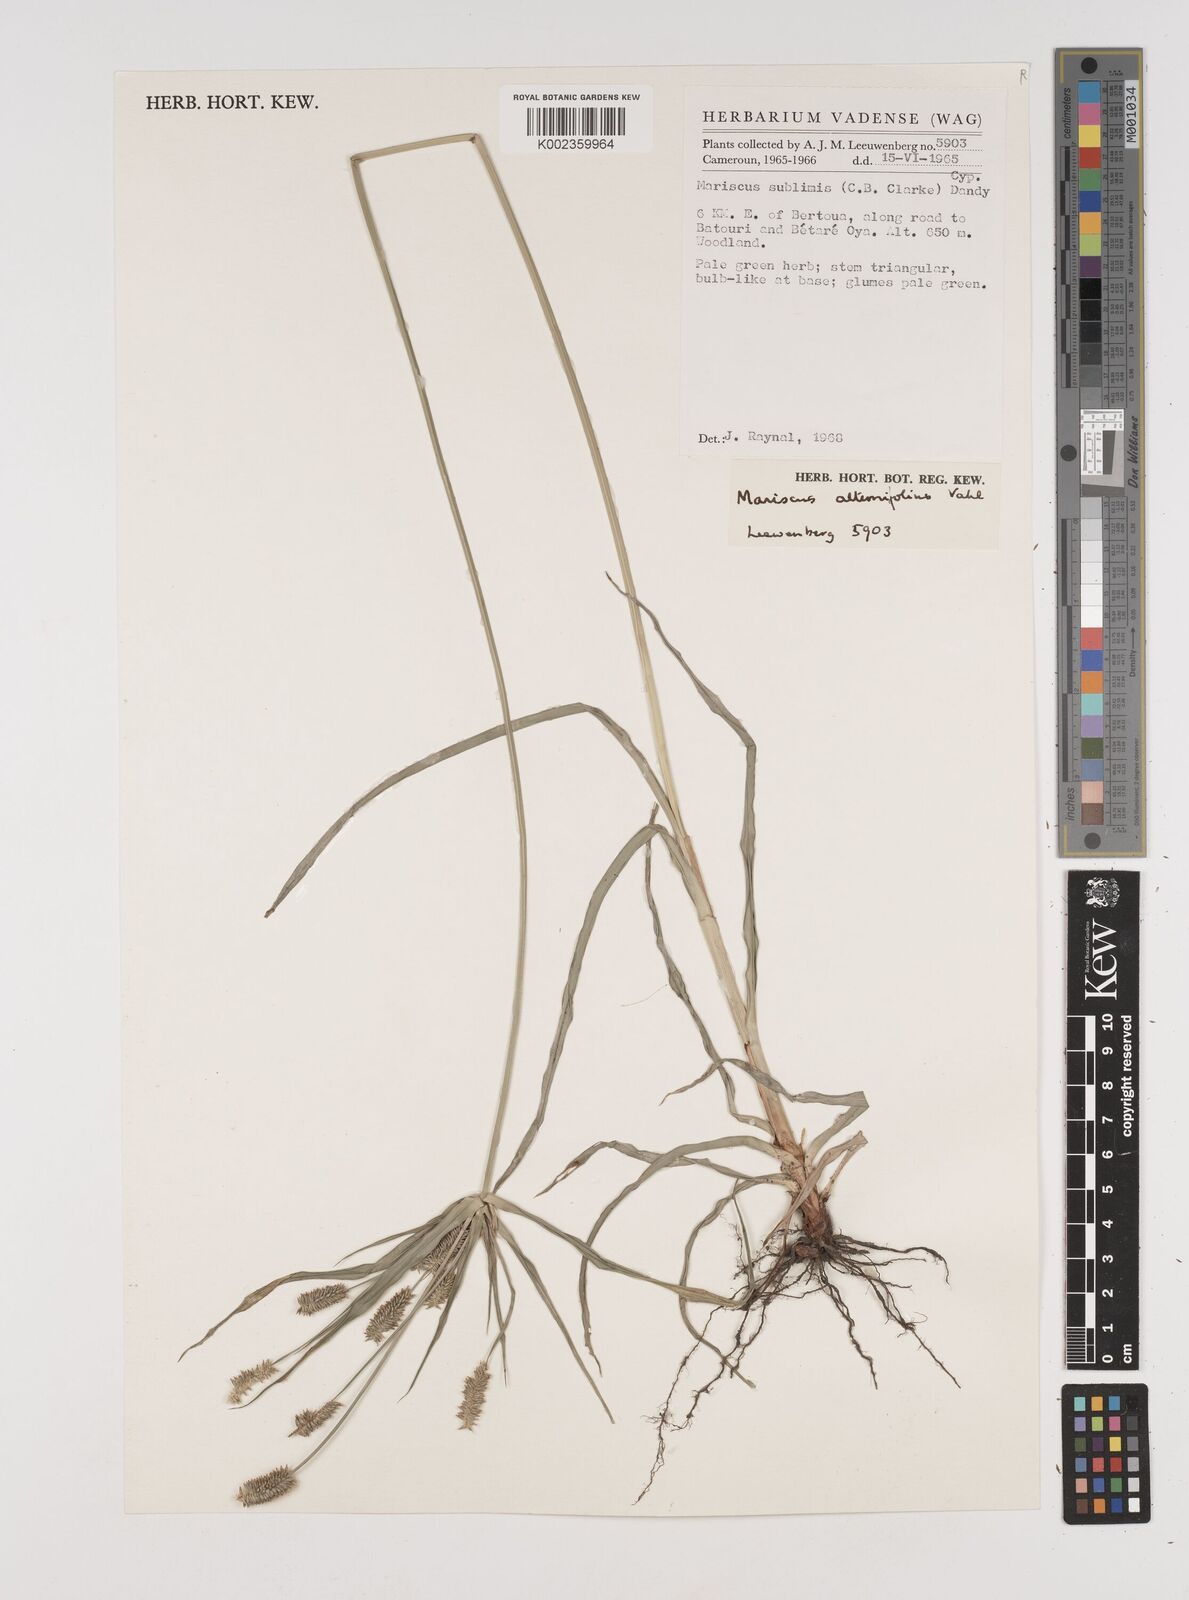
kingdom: Plantae
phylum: Tracheophyta
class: Liliopsida
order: Poales
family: Cyperaceae
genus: Cyperus
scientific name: Cyperus cyperoides
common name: Pacific island flat sedge
